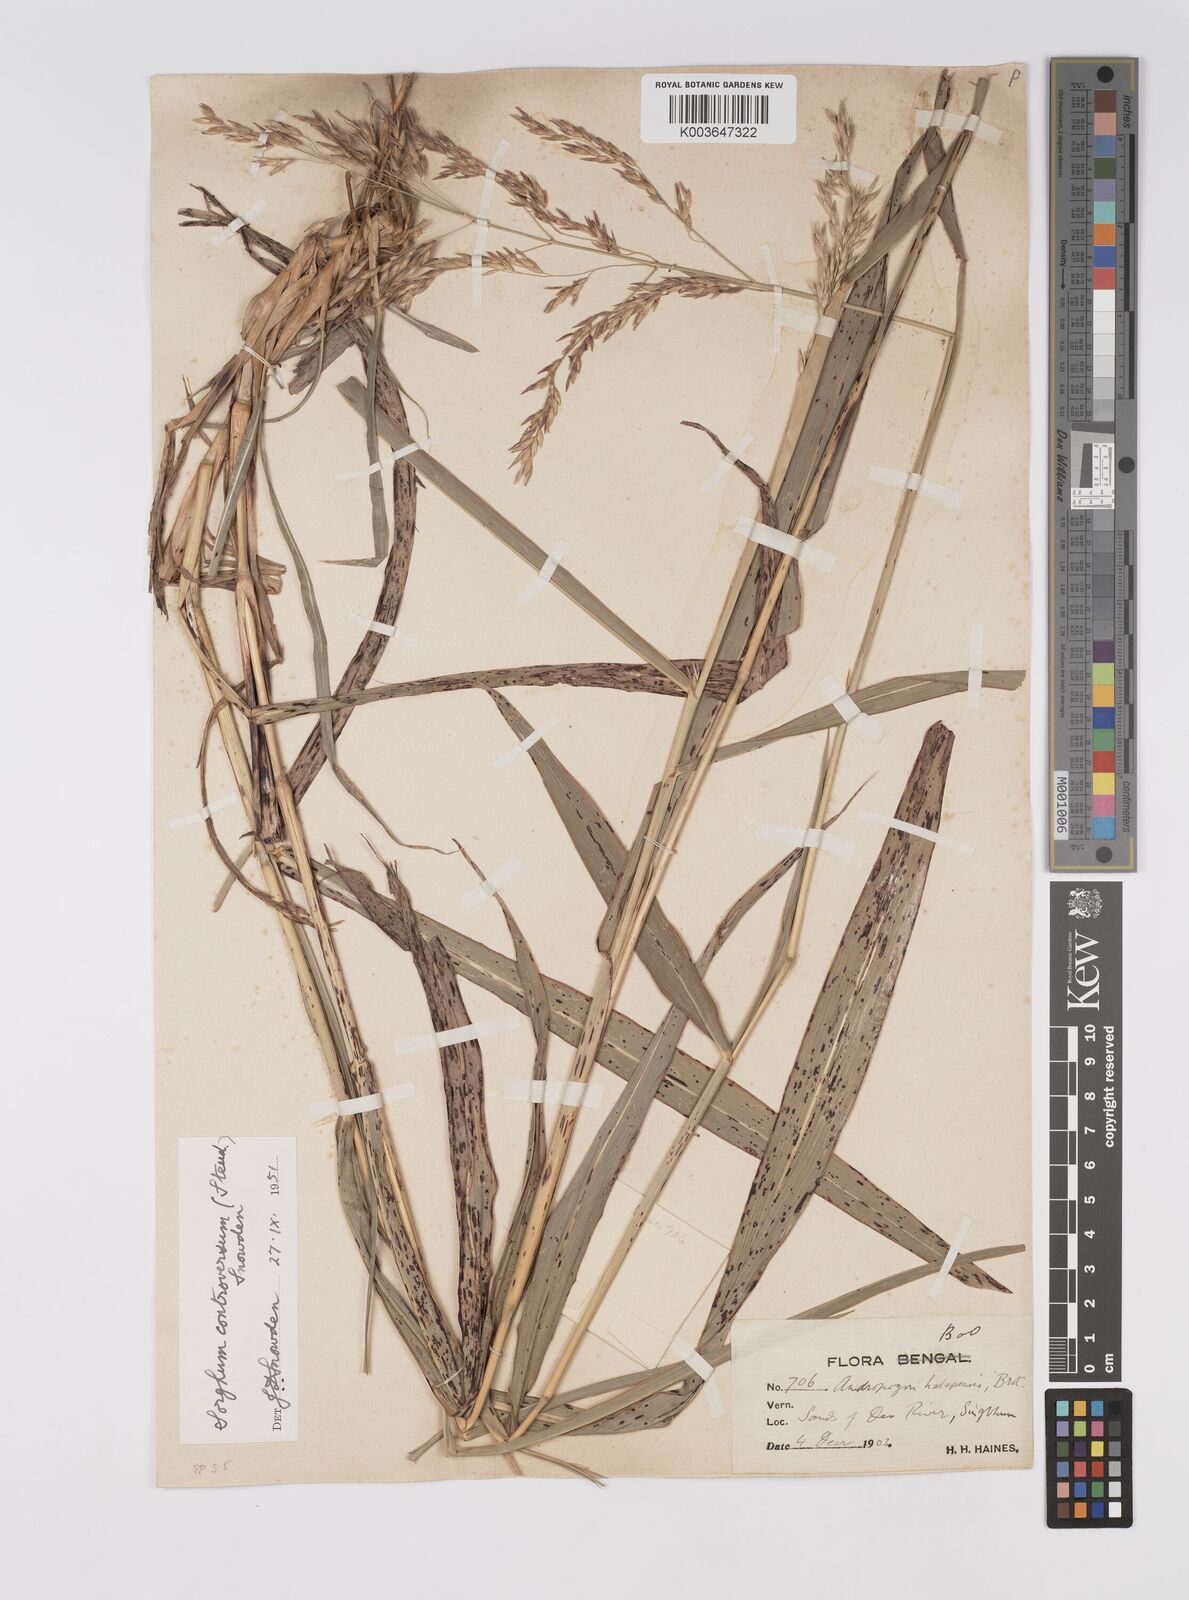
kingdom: Plantae
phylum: Tracheophyta
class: Liliopsida
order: Poales
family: Poaceae
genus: Sorghum
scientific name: Sorghum controversum
